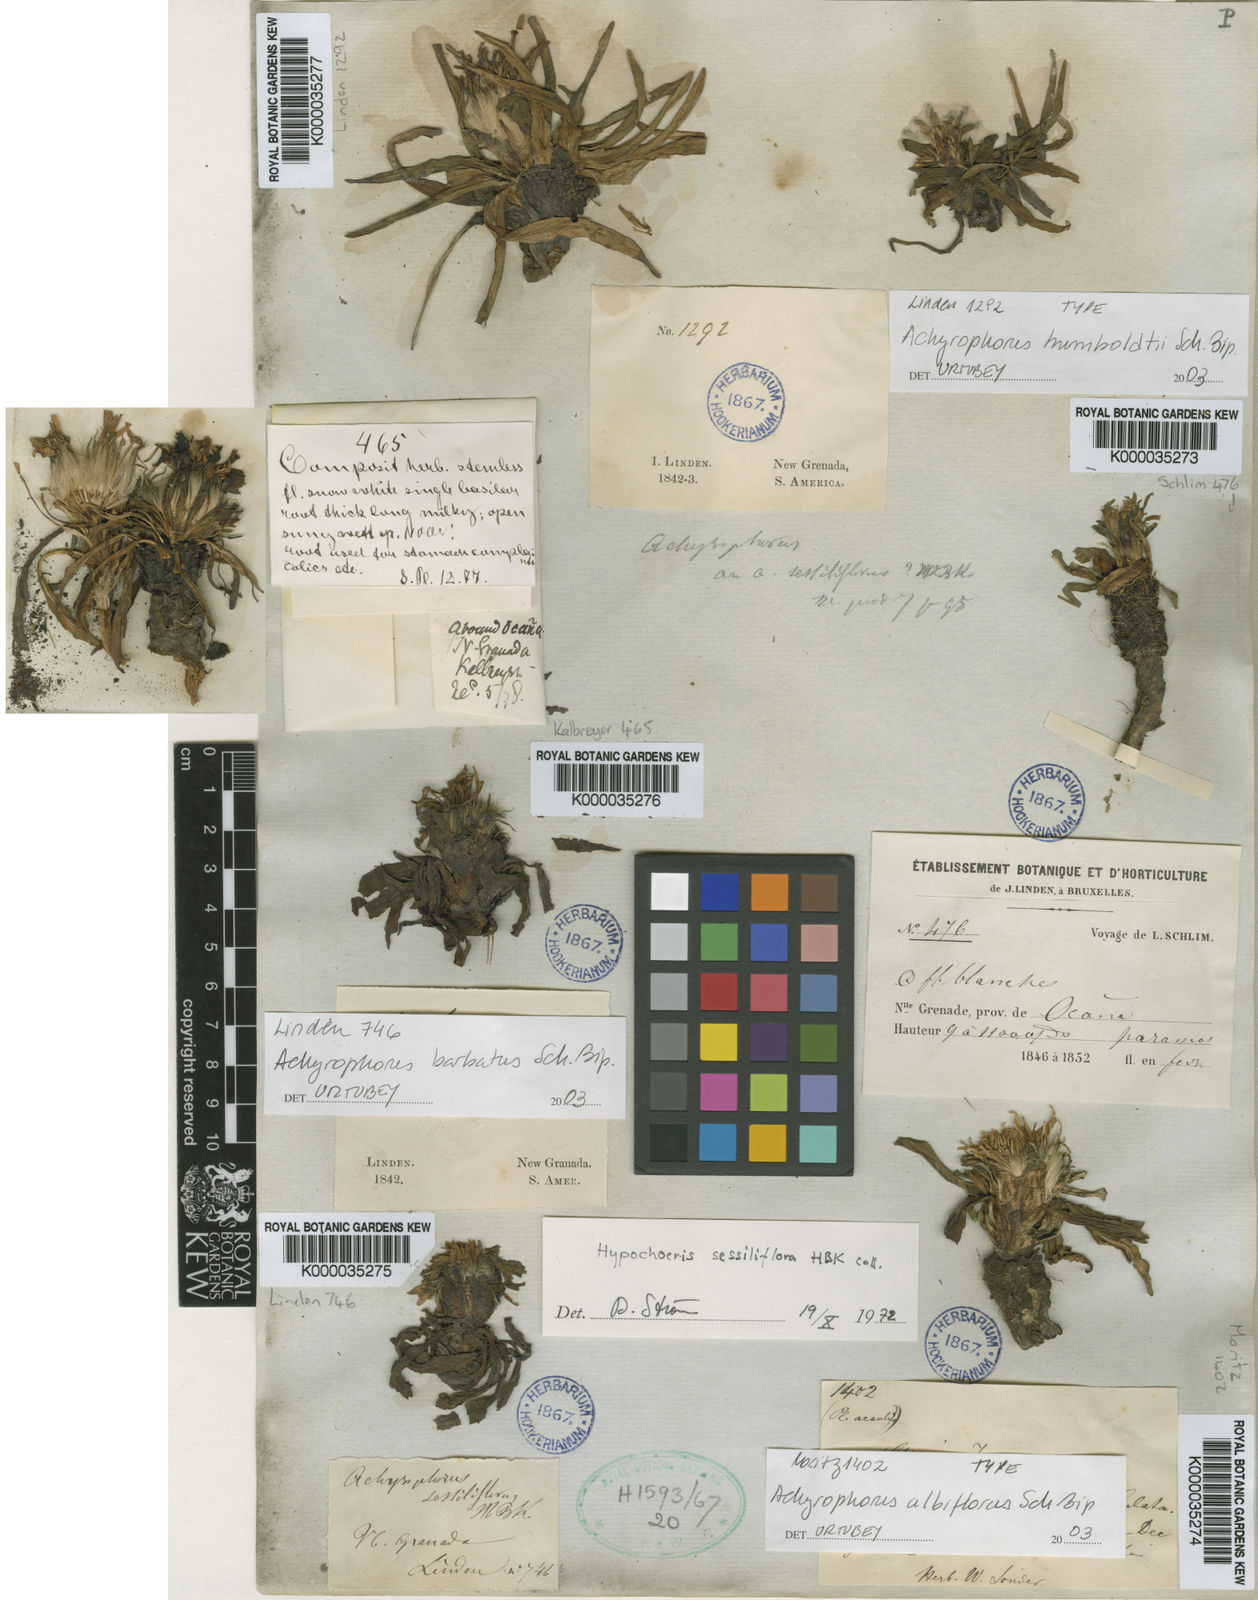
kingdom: Plantae
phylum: Tracheophyta
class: Magnoliopsida
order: Asterales
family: Asteraceae
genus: Hypochaeris
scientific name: Hypochaeris sessiliflora
